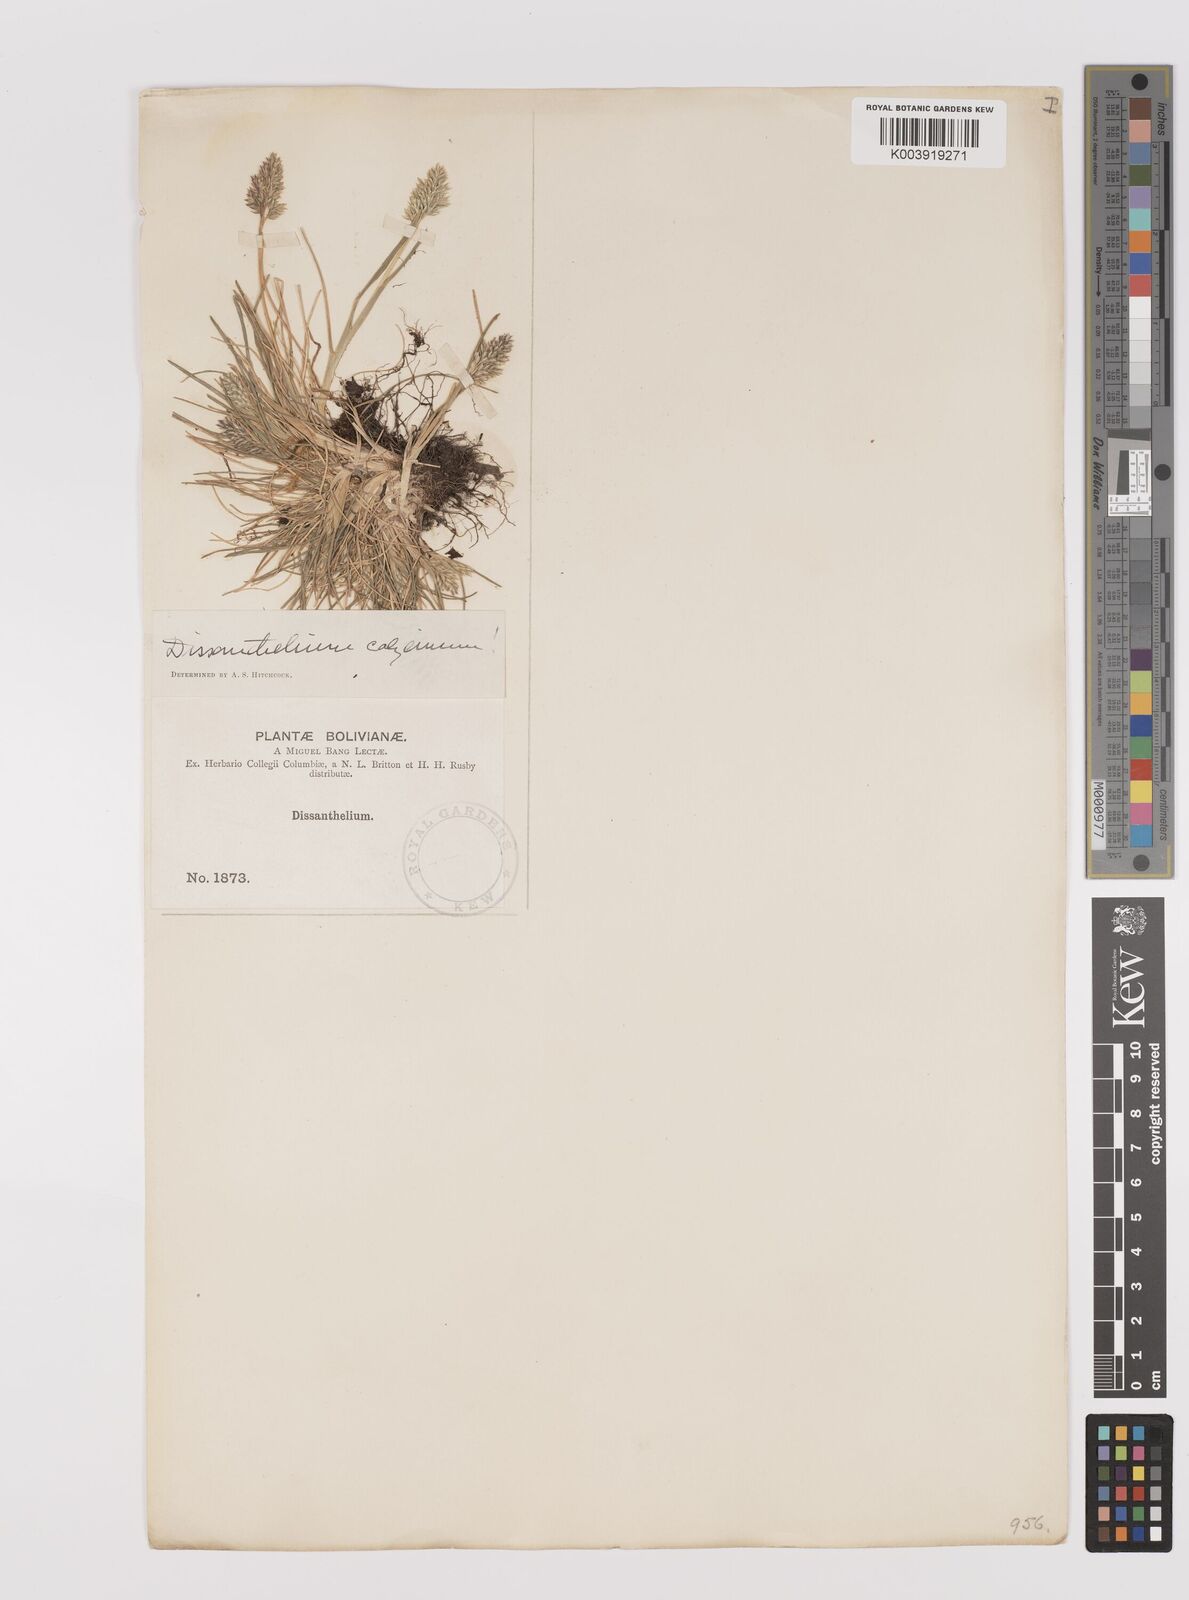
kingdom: Plantae
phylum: Tracheophyta
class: Liliopsida
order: Poales
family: Poaceae
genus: Poa
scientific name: Poa calycina
